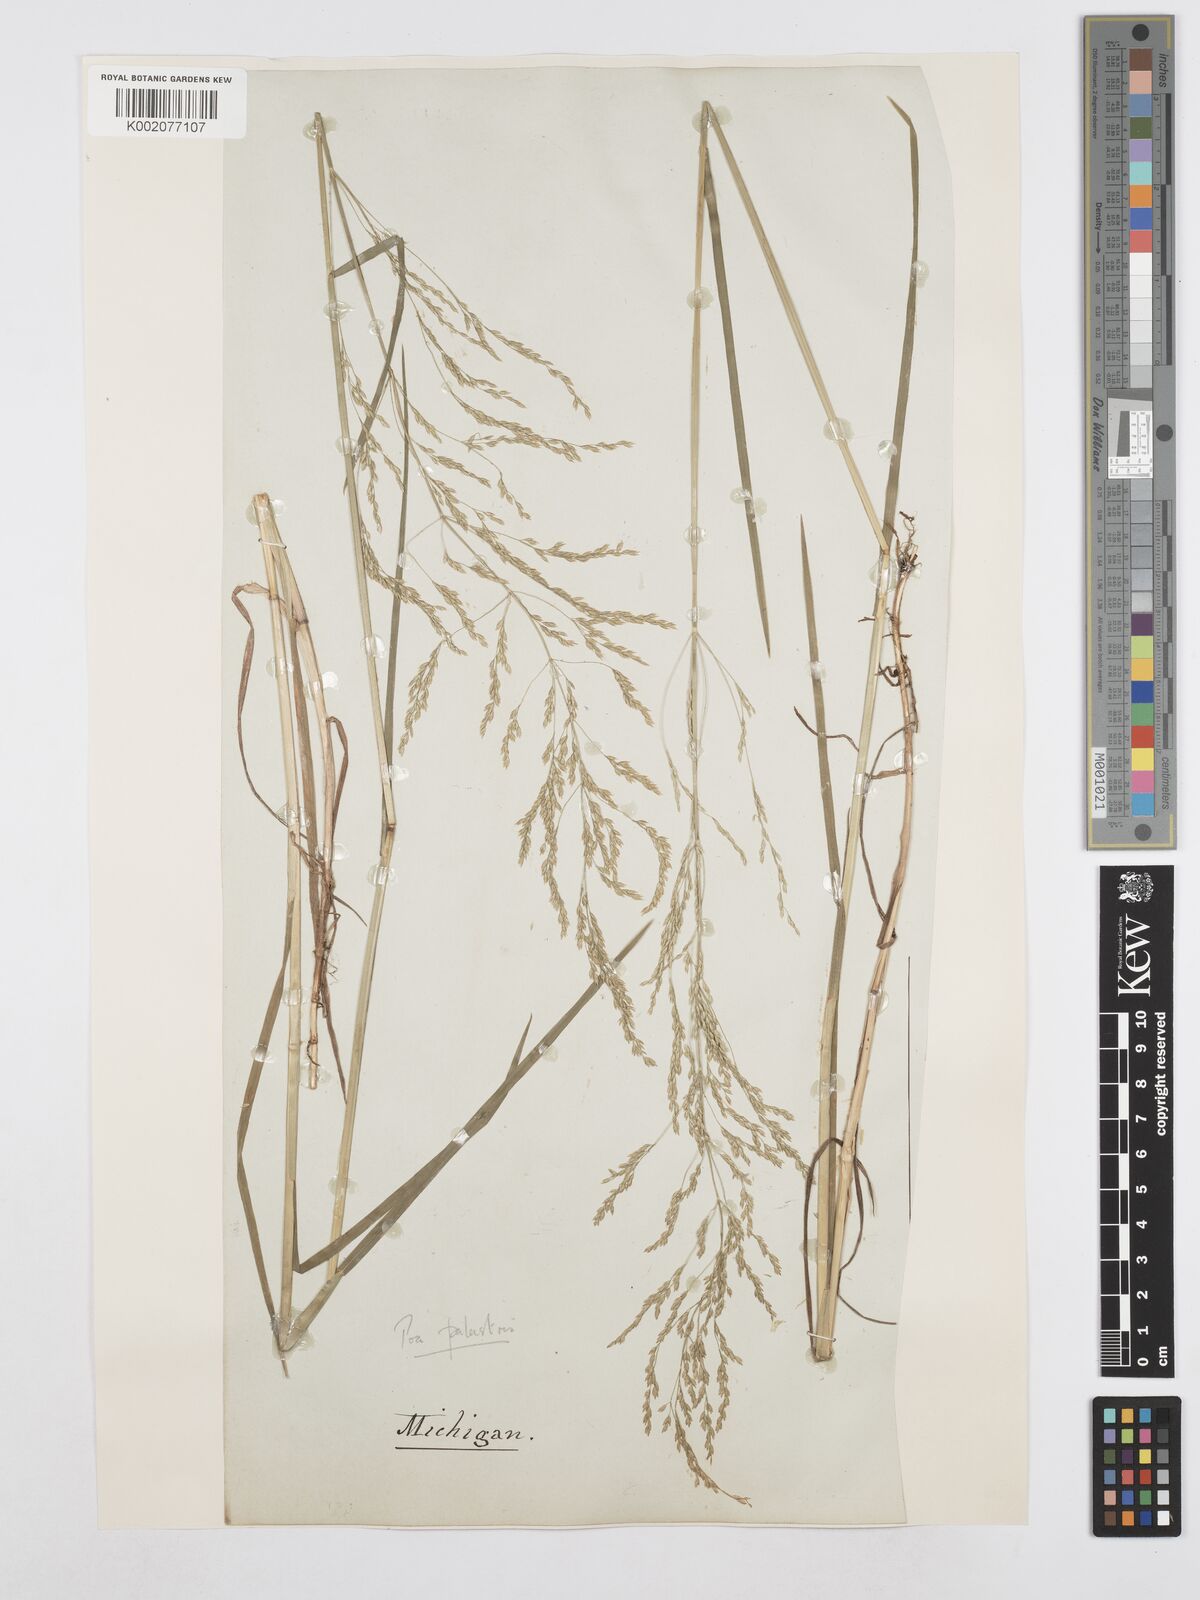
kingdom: Plantae
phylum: Tracheophyta
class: Liliopsida
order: Poales
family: Poaceae
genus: Poa
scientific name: Poa palustris
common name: Swamp meadow-grass
